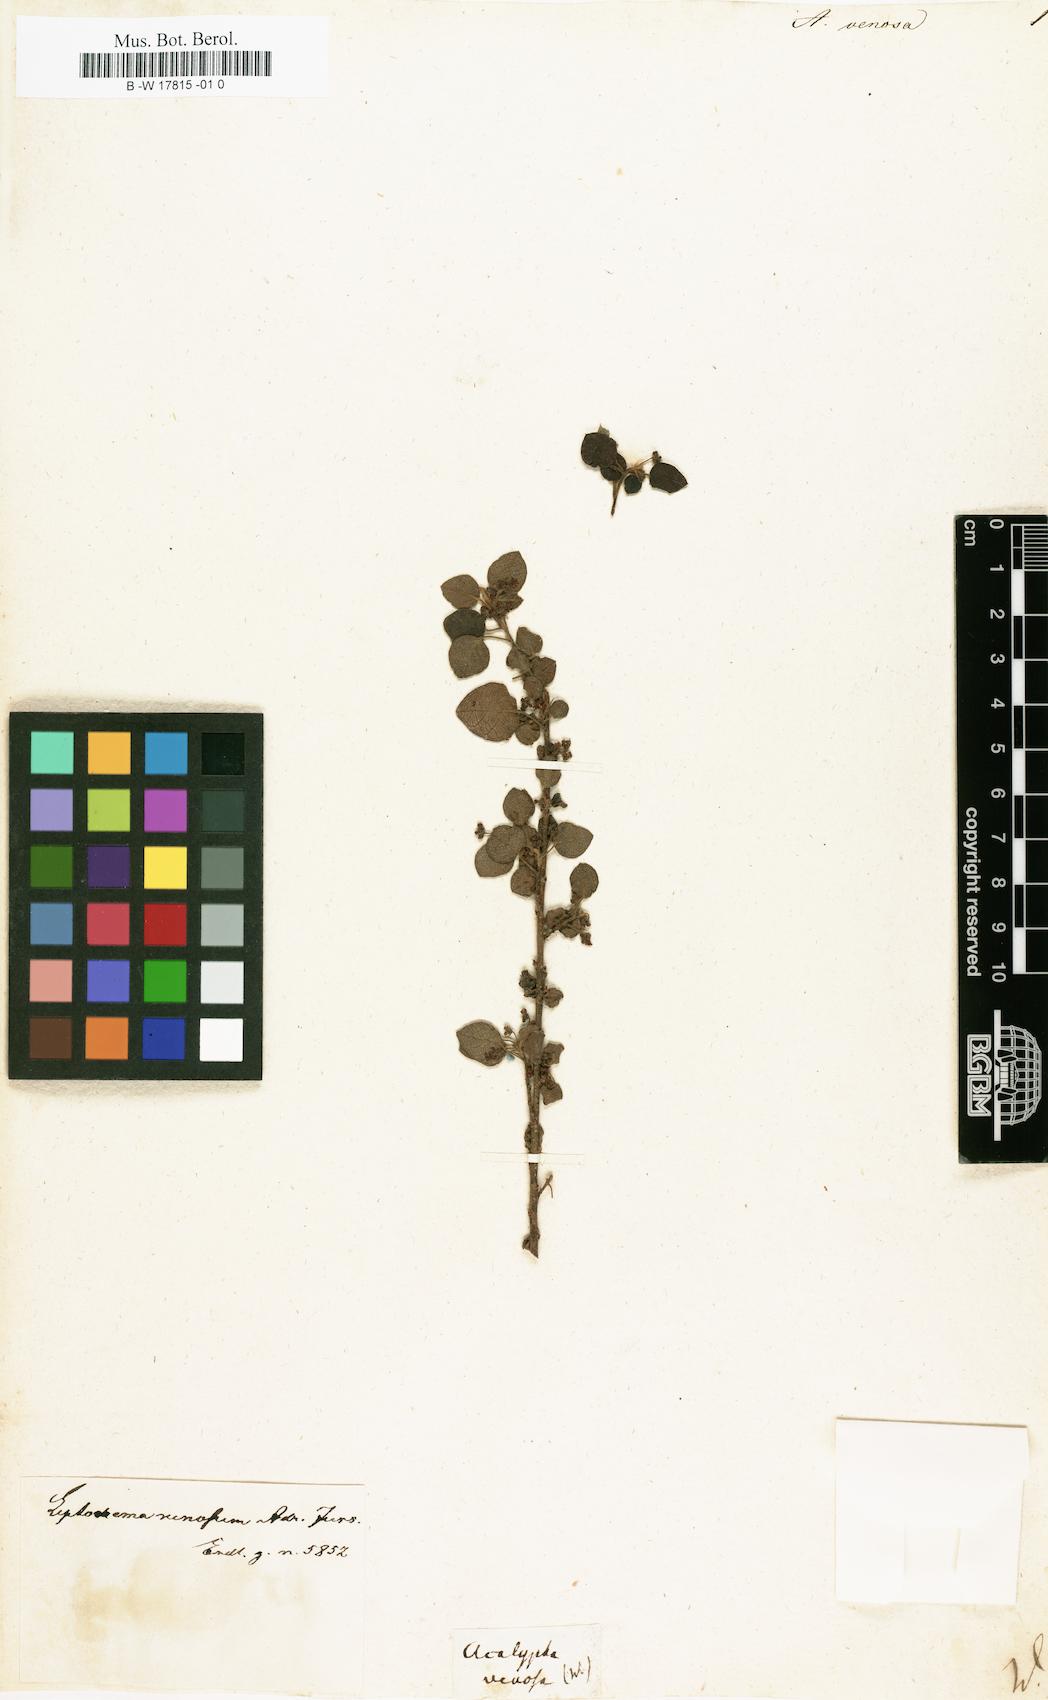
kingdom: Plantae
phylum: Tracheophyta
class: Magnoliopsida
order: Malpighiales
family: Phyllanthaceae
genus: Leptonema
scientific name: Leptonema venosum
